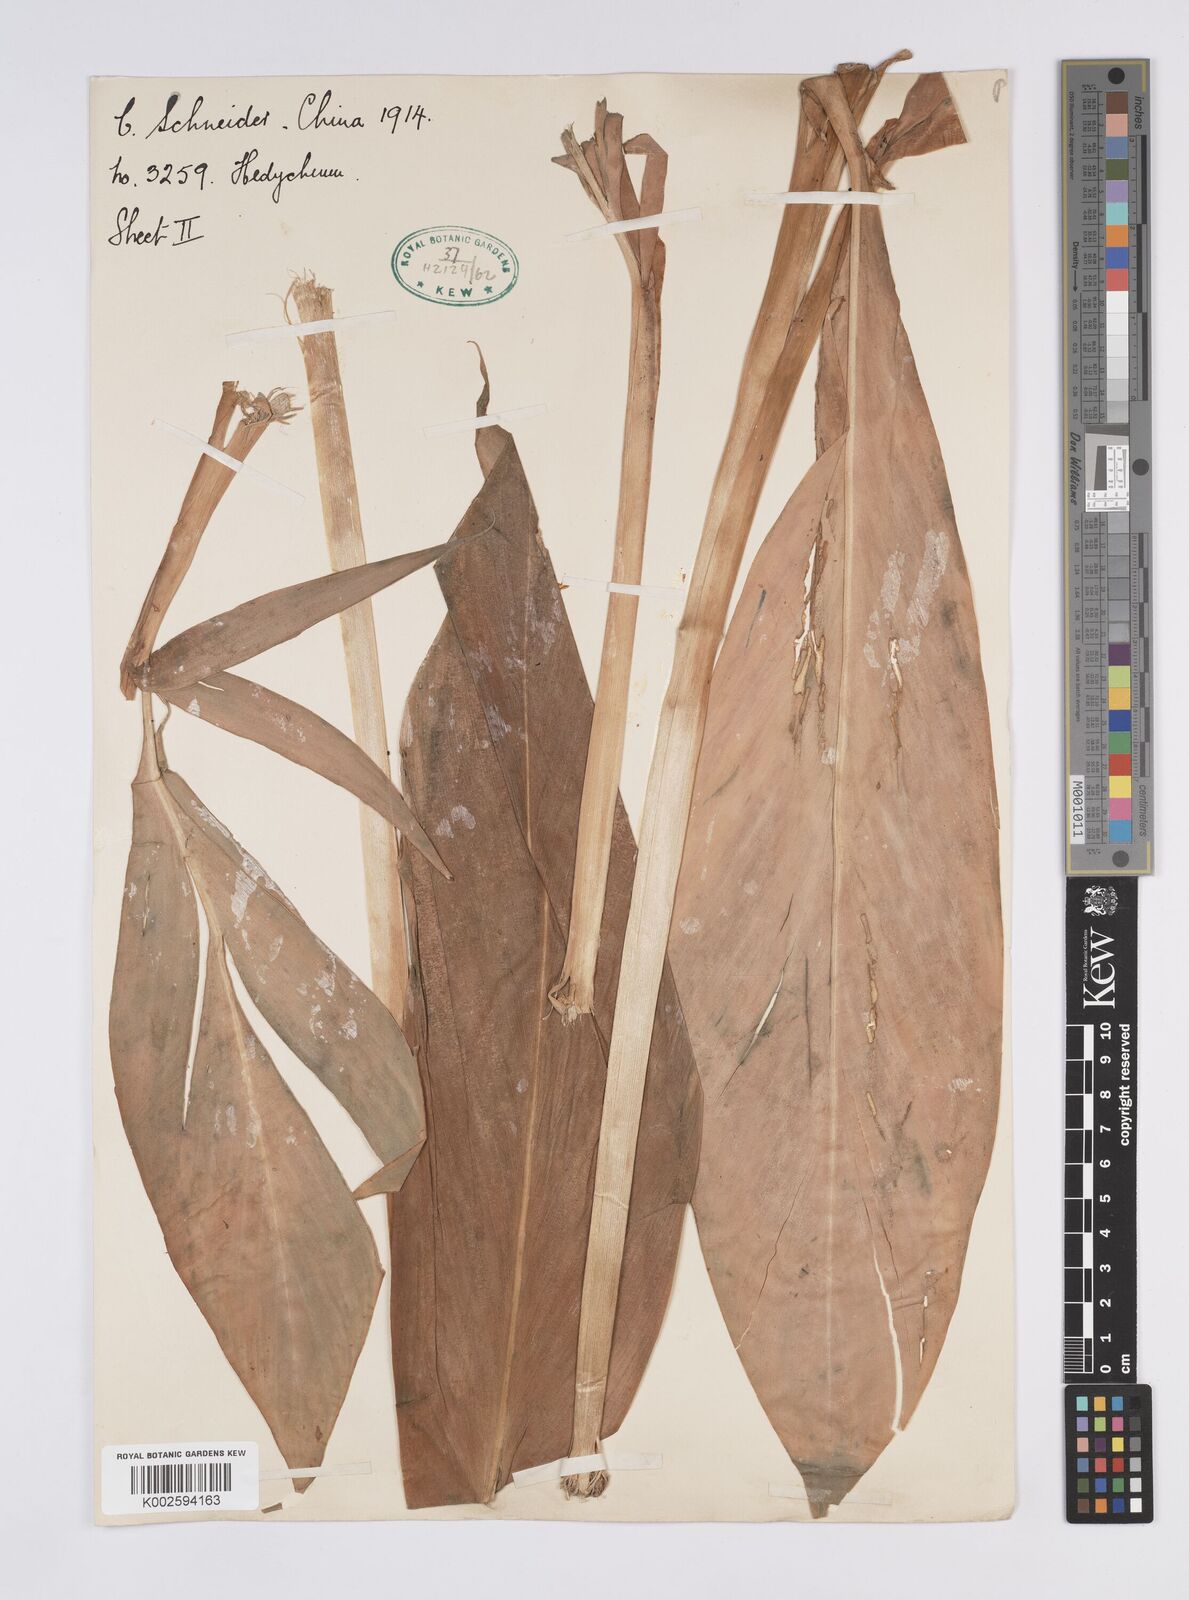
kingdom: Plantae
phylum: Tracheophyta
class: Liliopsida
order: Zingiberales
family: Zingiberaceae
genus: Hedychium
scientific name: Hedychium spicatum
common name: Spiked ginger-lily
